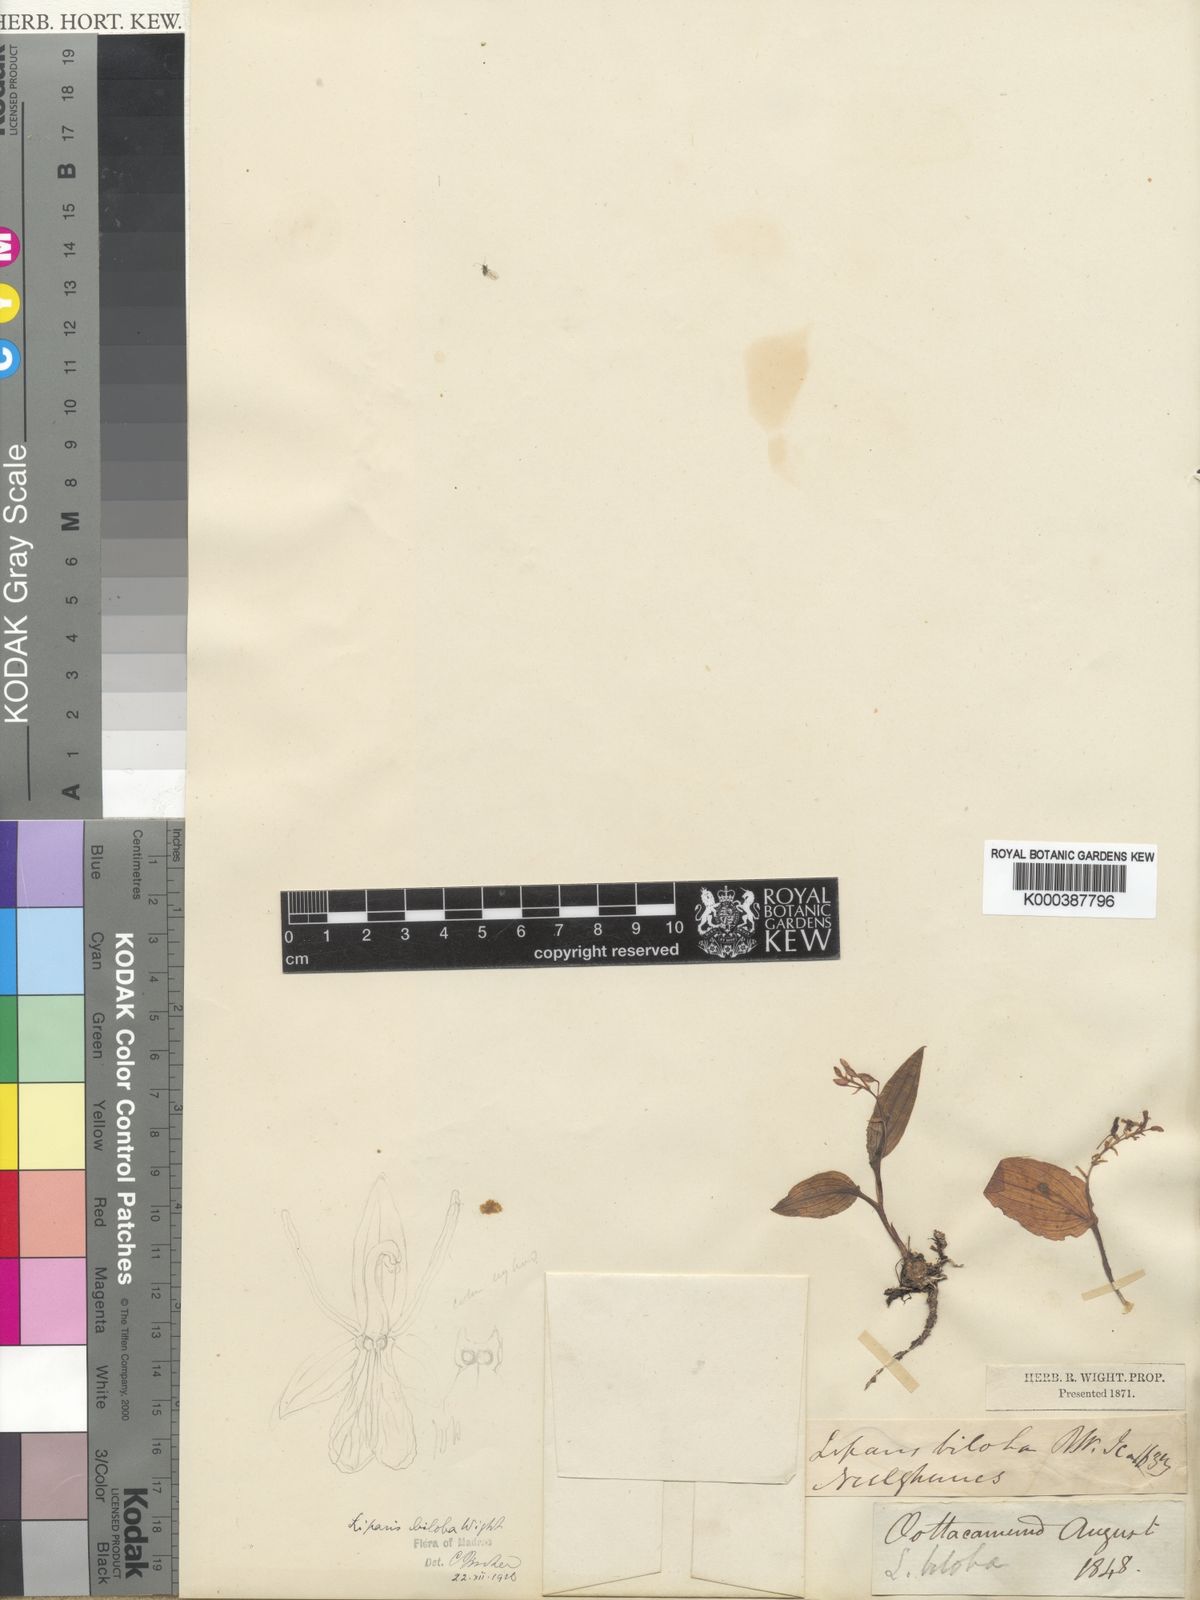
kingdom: Plantae
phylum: Tracheophyta
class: Liliopsida
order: Asparagales
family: Orchidaceae
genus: Liparis
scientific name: Liparis biloba
